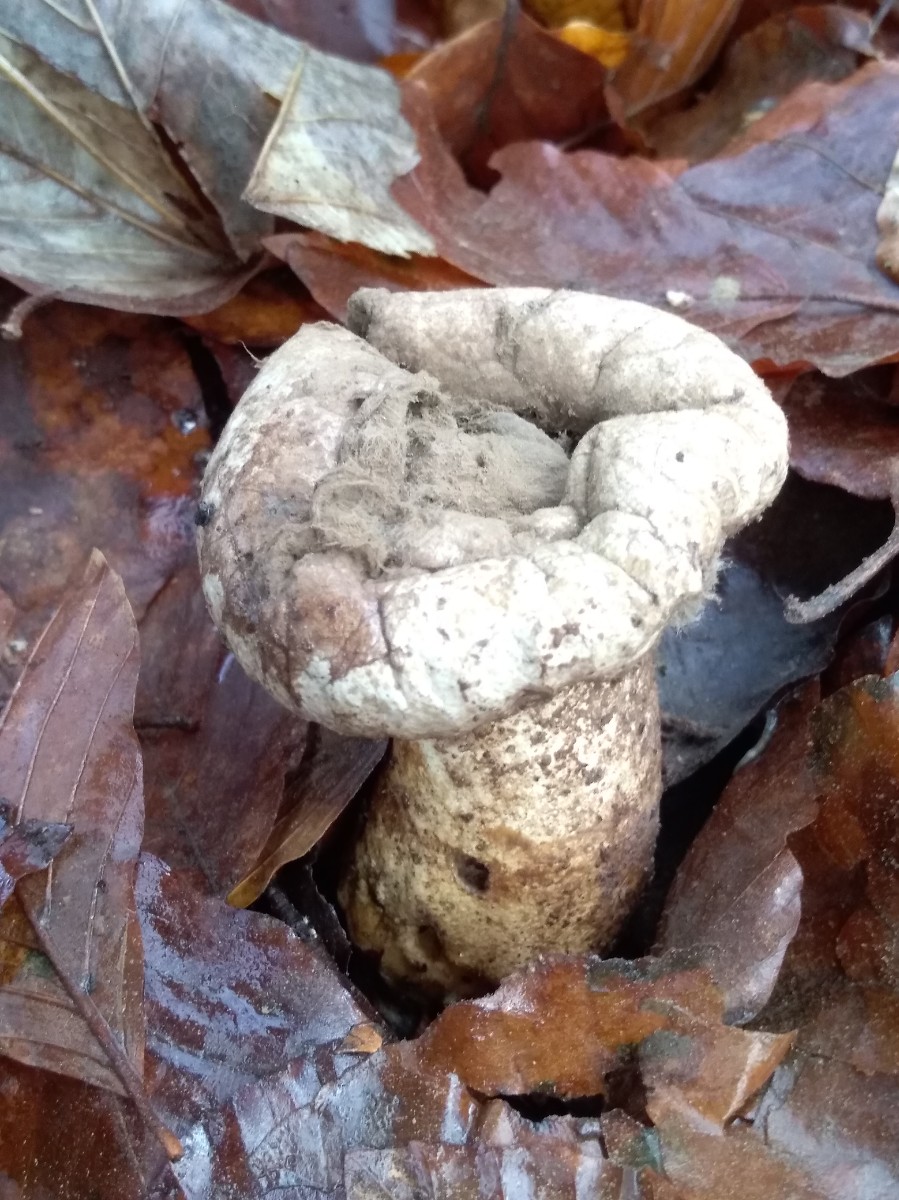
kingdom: Fungi
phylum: Basidiomycota
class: Agaricomycetes
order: Agaricales
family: Agaricaceae
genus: Lycoperdon
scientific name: Lycoperdon
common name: støvbold
